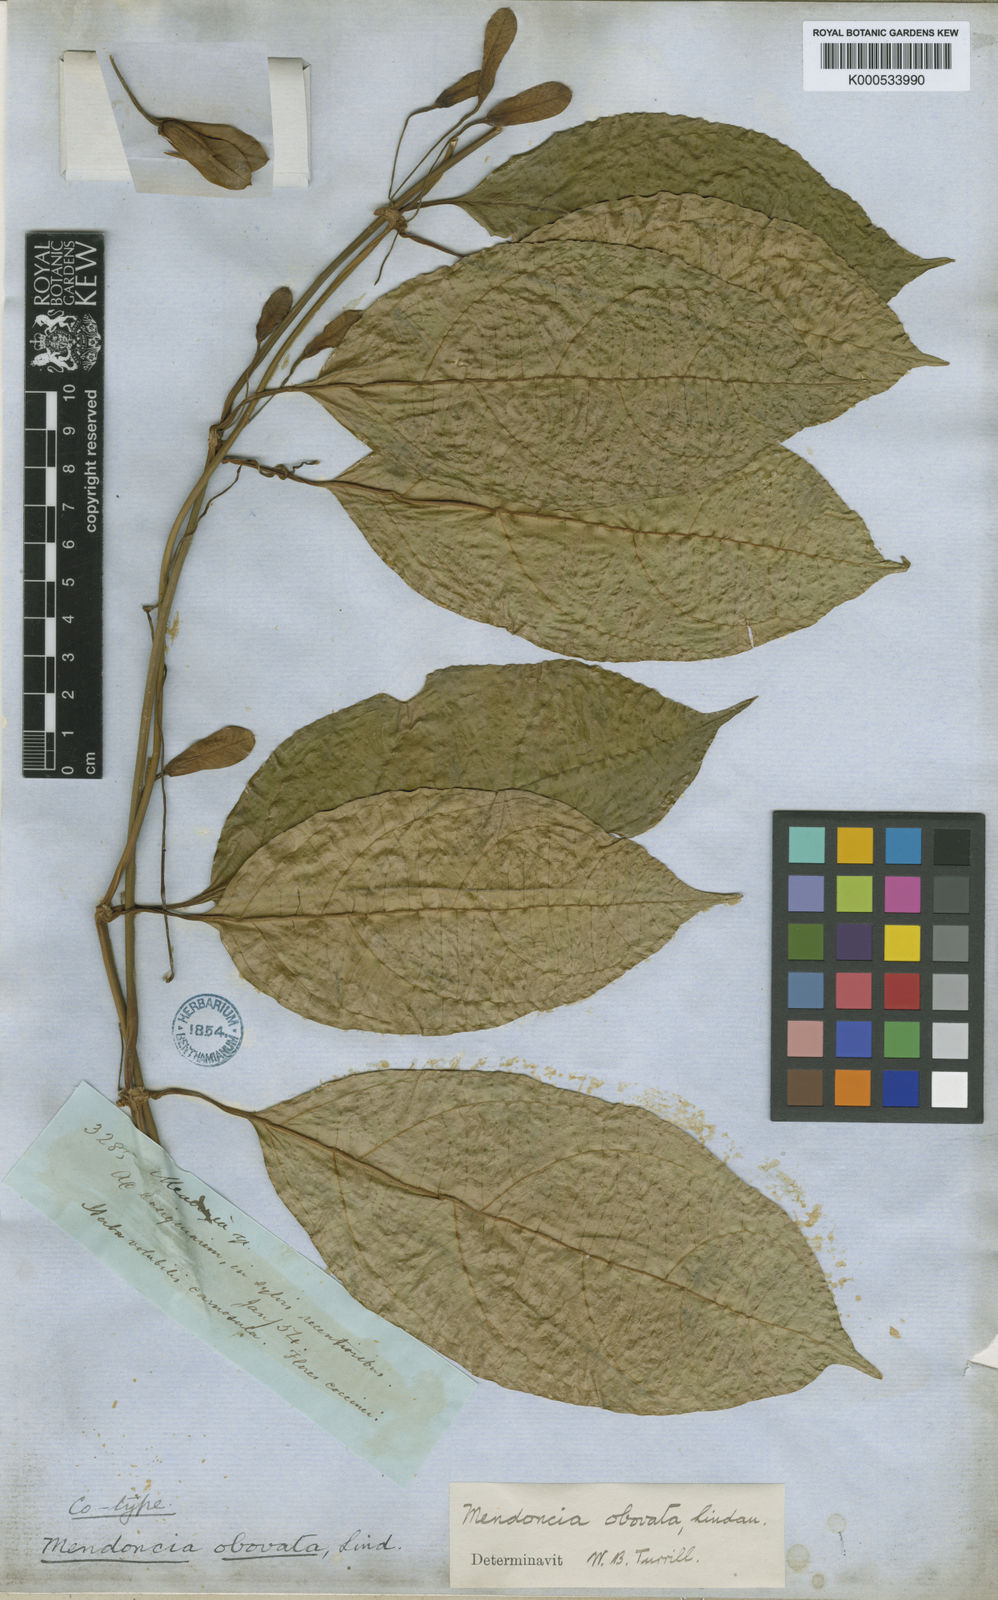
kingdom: Plantae
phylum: Tracheophyta
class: Magnoliopsida
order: Lamiales
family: Acanthaceae
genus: Mendoncia
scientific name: Mendoncia obovata
